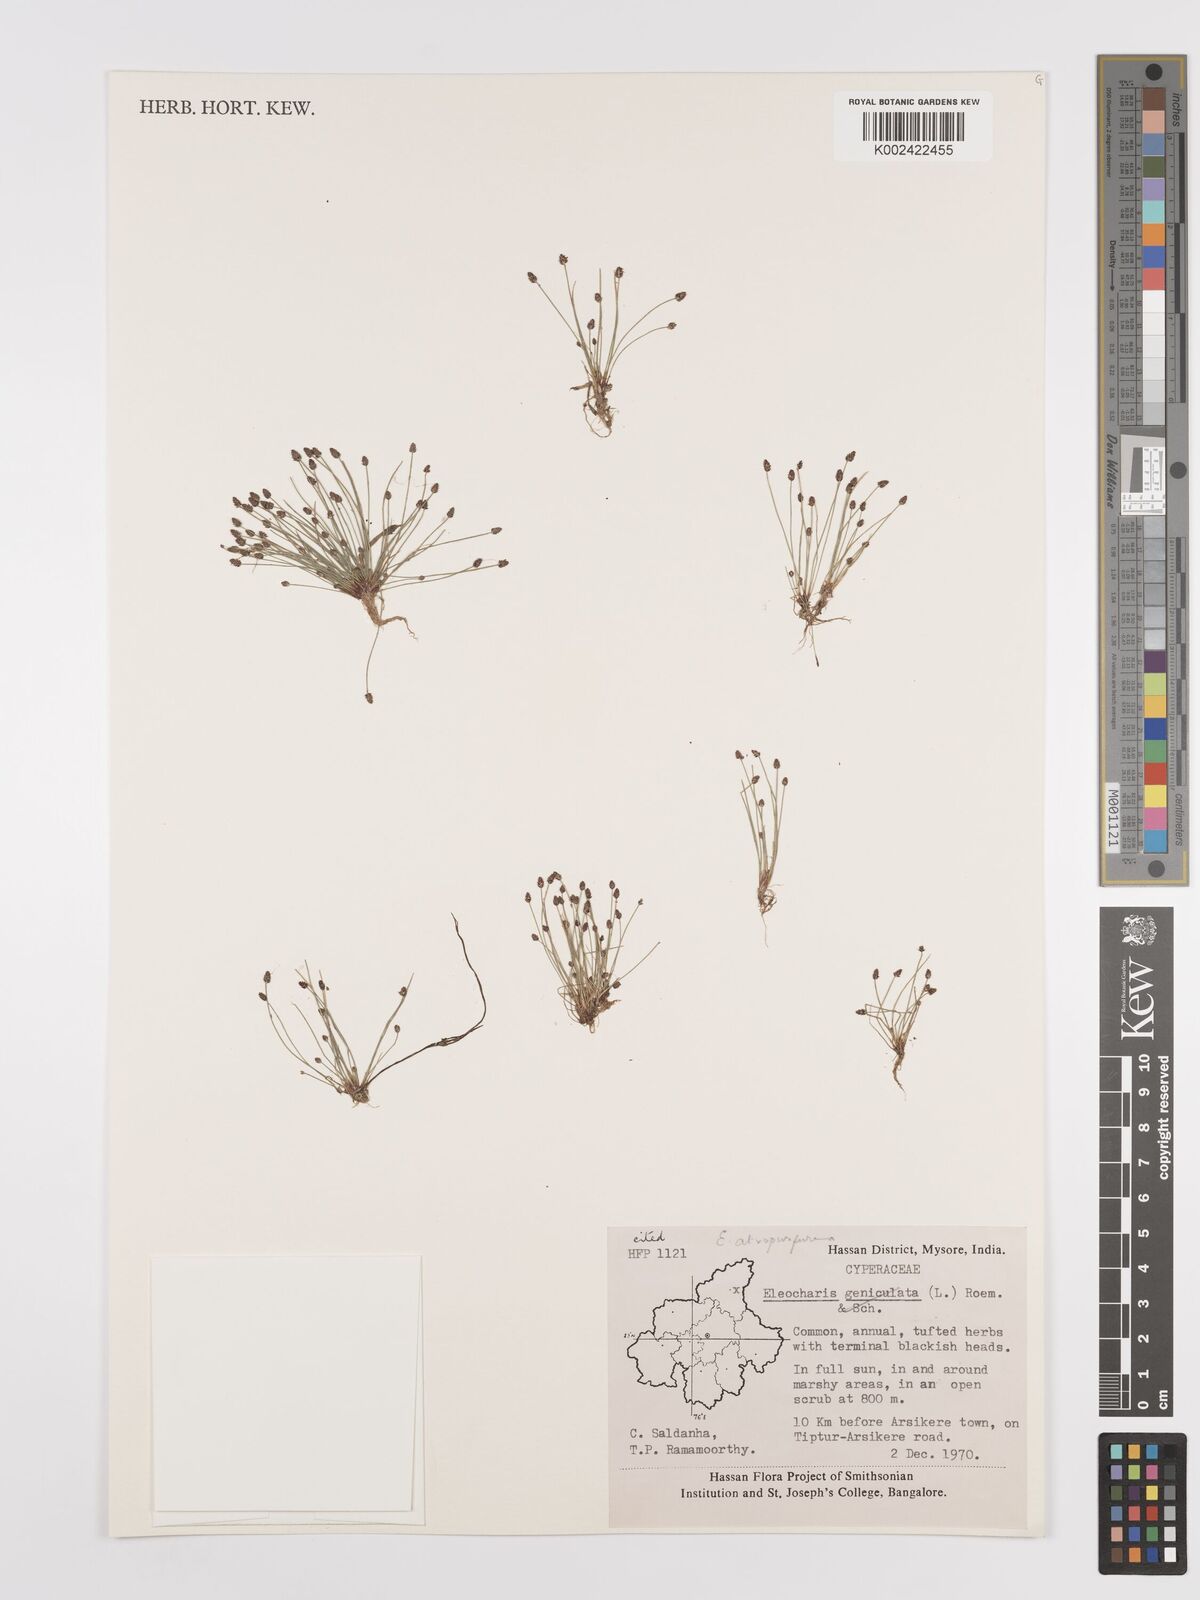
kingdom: Plantae
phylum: Tracheophyta
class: Liliopsida
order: Poales
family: Cyperaceae
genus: Eleocharis
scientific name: Eleocharis atropurpurea
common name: Purple spikerush
